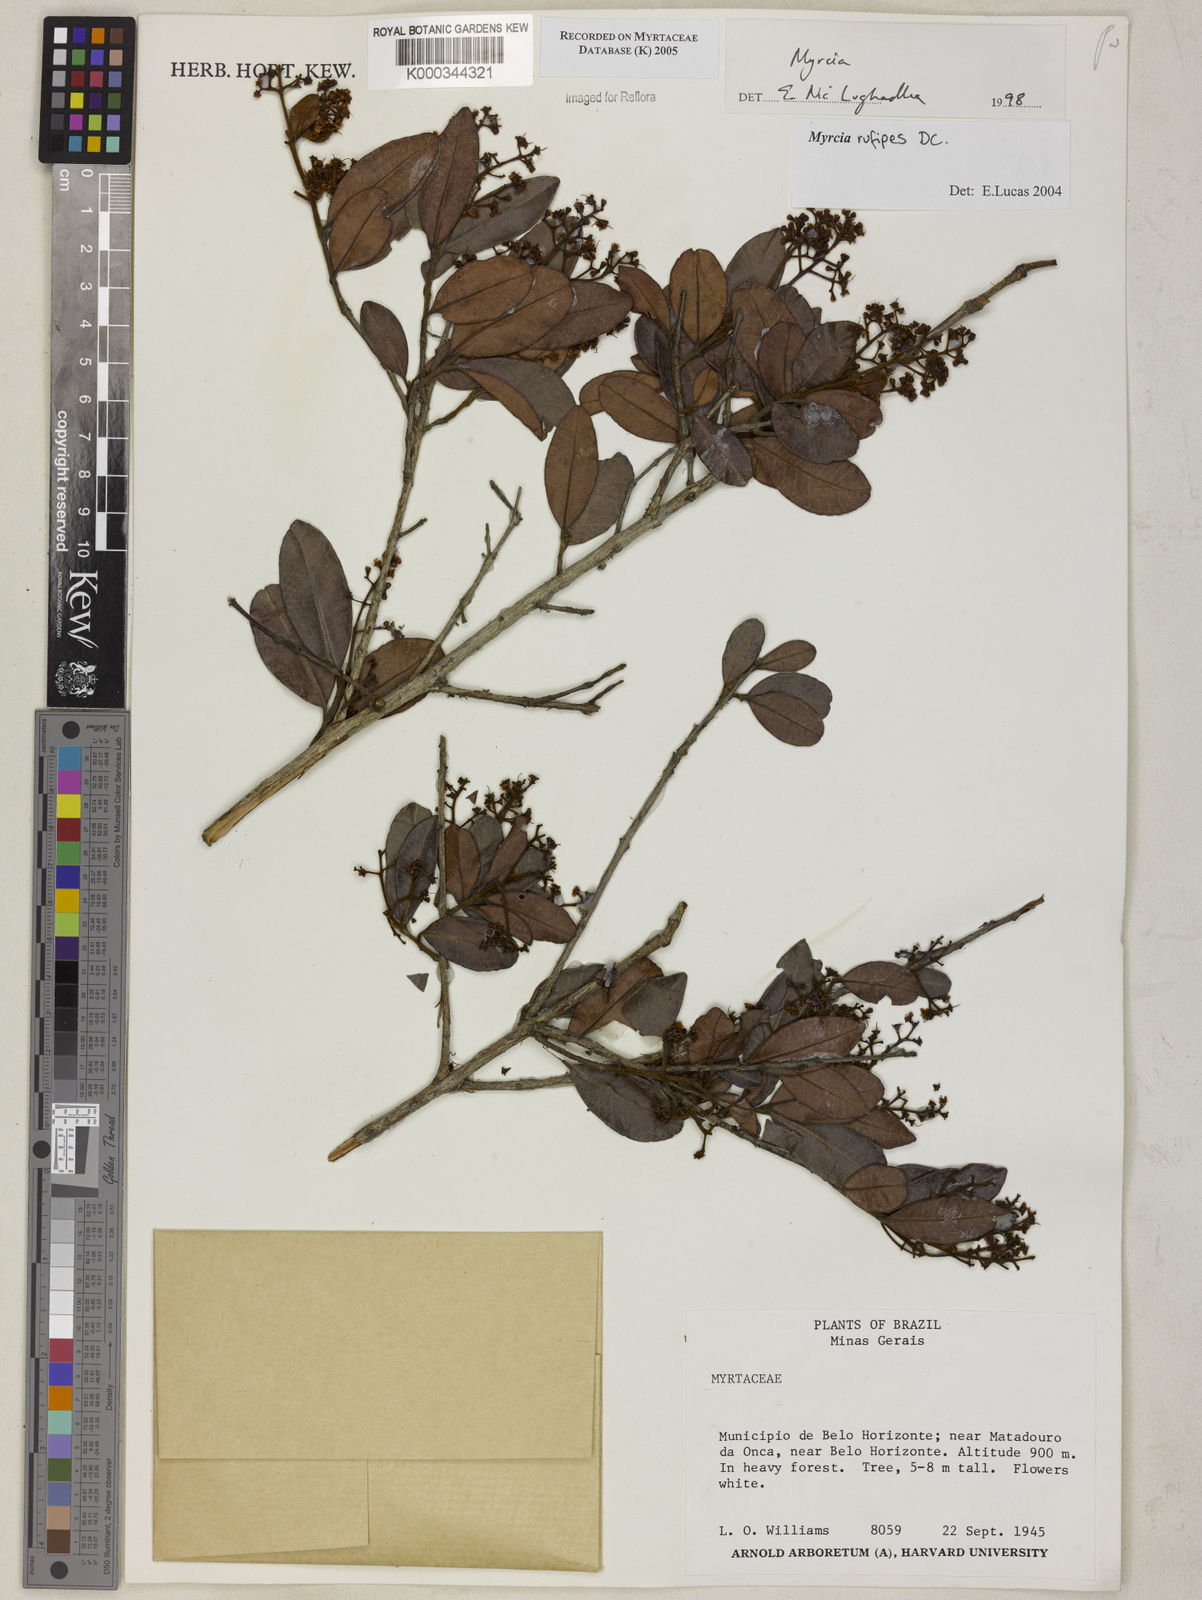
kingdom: Plantae
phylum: Tracheophyta
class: Magnoliopsida
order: Myrtales
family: Myrtaceae
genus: Myrcia
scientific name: Myrcia rufipes
